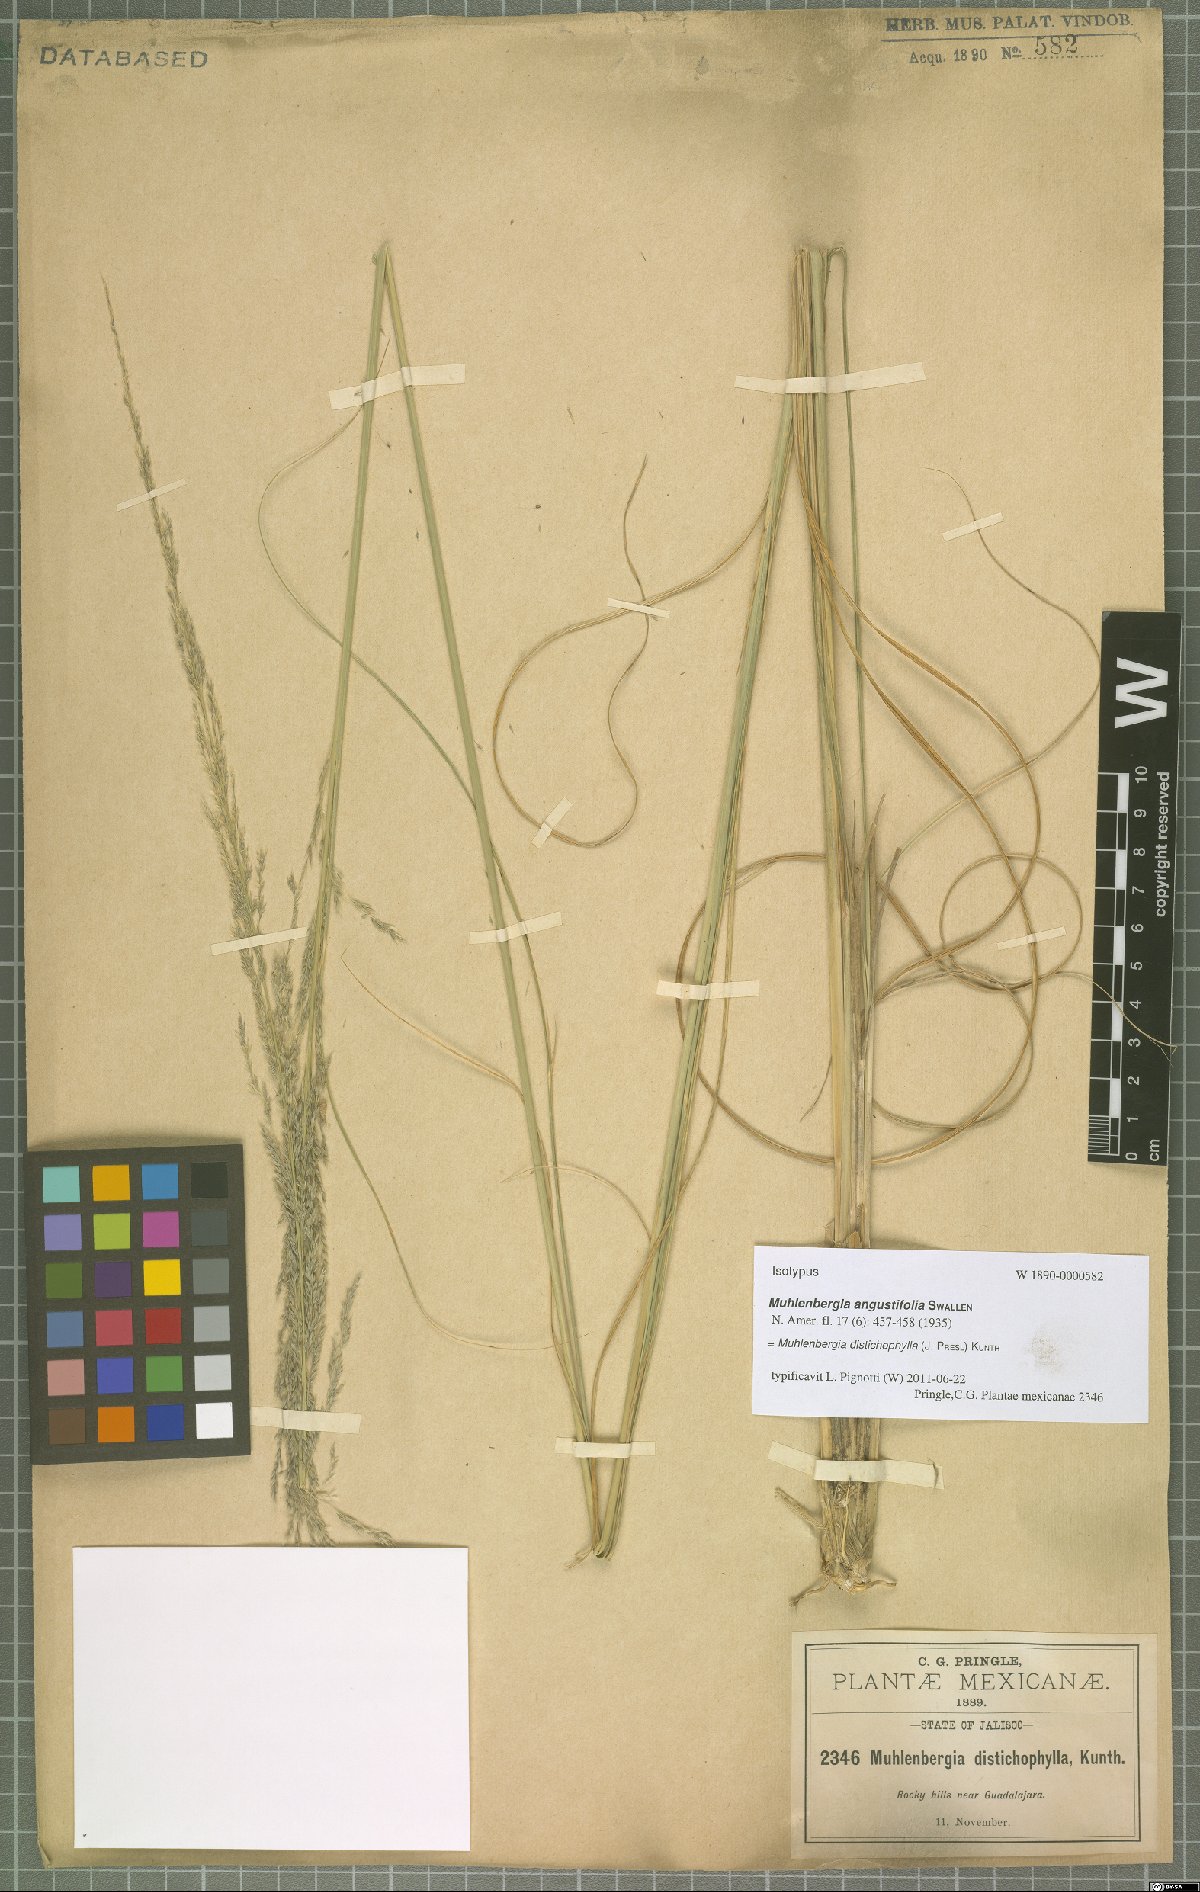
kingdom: Plantae
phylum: Tracheophyta
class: Liliopsida
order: Poales
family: Poaceae
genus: Muhlenbergia
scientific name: Muhlenbergia distichophylla
